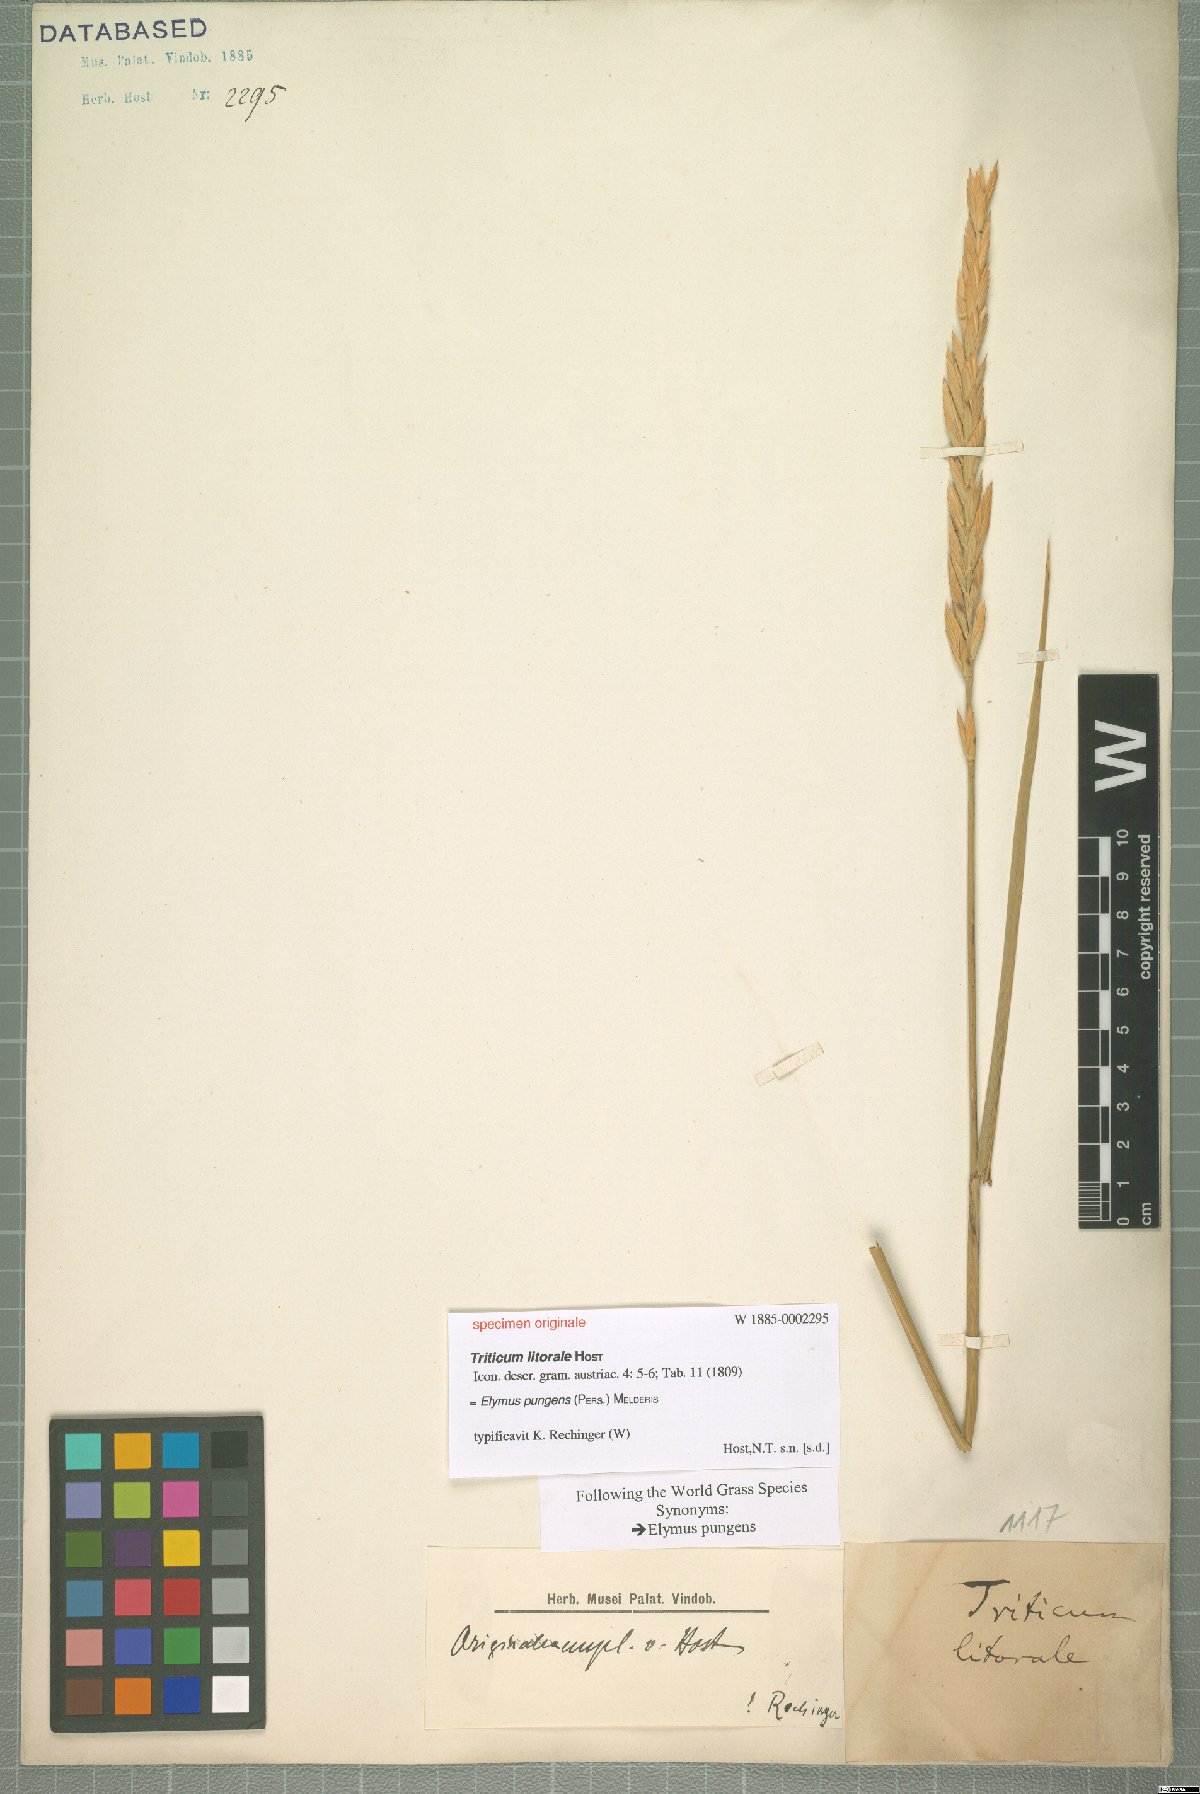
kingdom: Plantae
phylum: Tracheophyta
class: Liliopsida
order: Poales
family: Poaceae
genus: Elymus
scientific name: Elymus athericus
